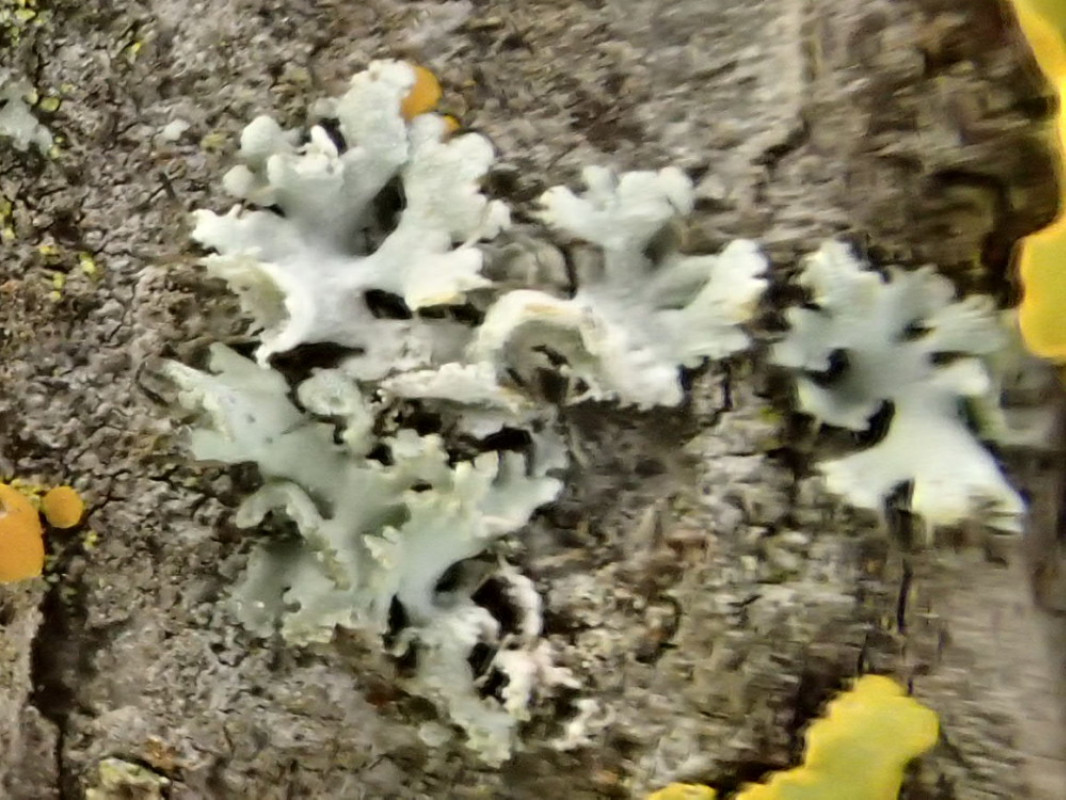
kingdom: Fungi
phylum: Ascomycota
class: Lecanoromycetes
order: Caliciales
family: Physciaceae
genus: Physcia
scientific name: Physcia tenella
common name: spæd rosetlav
